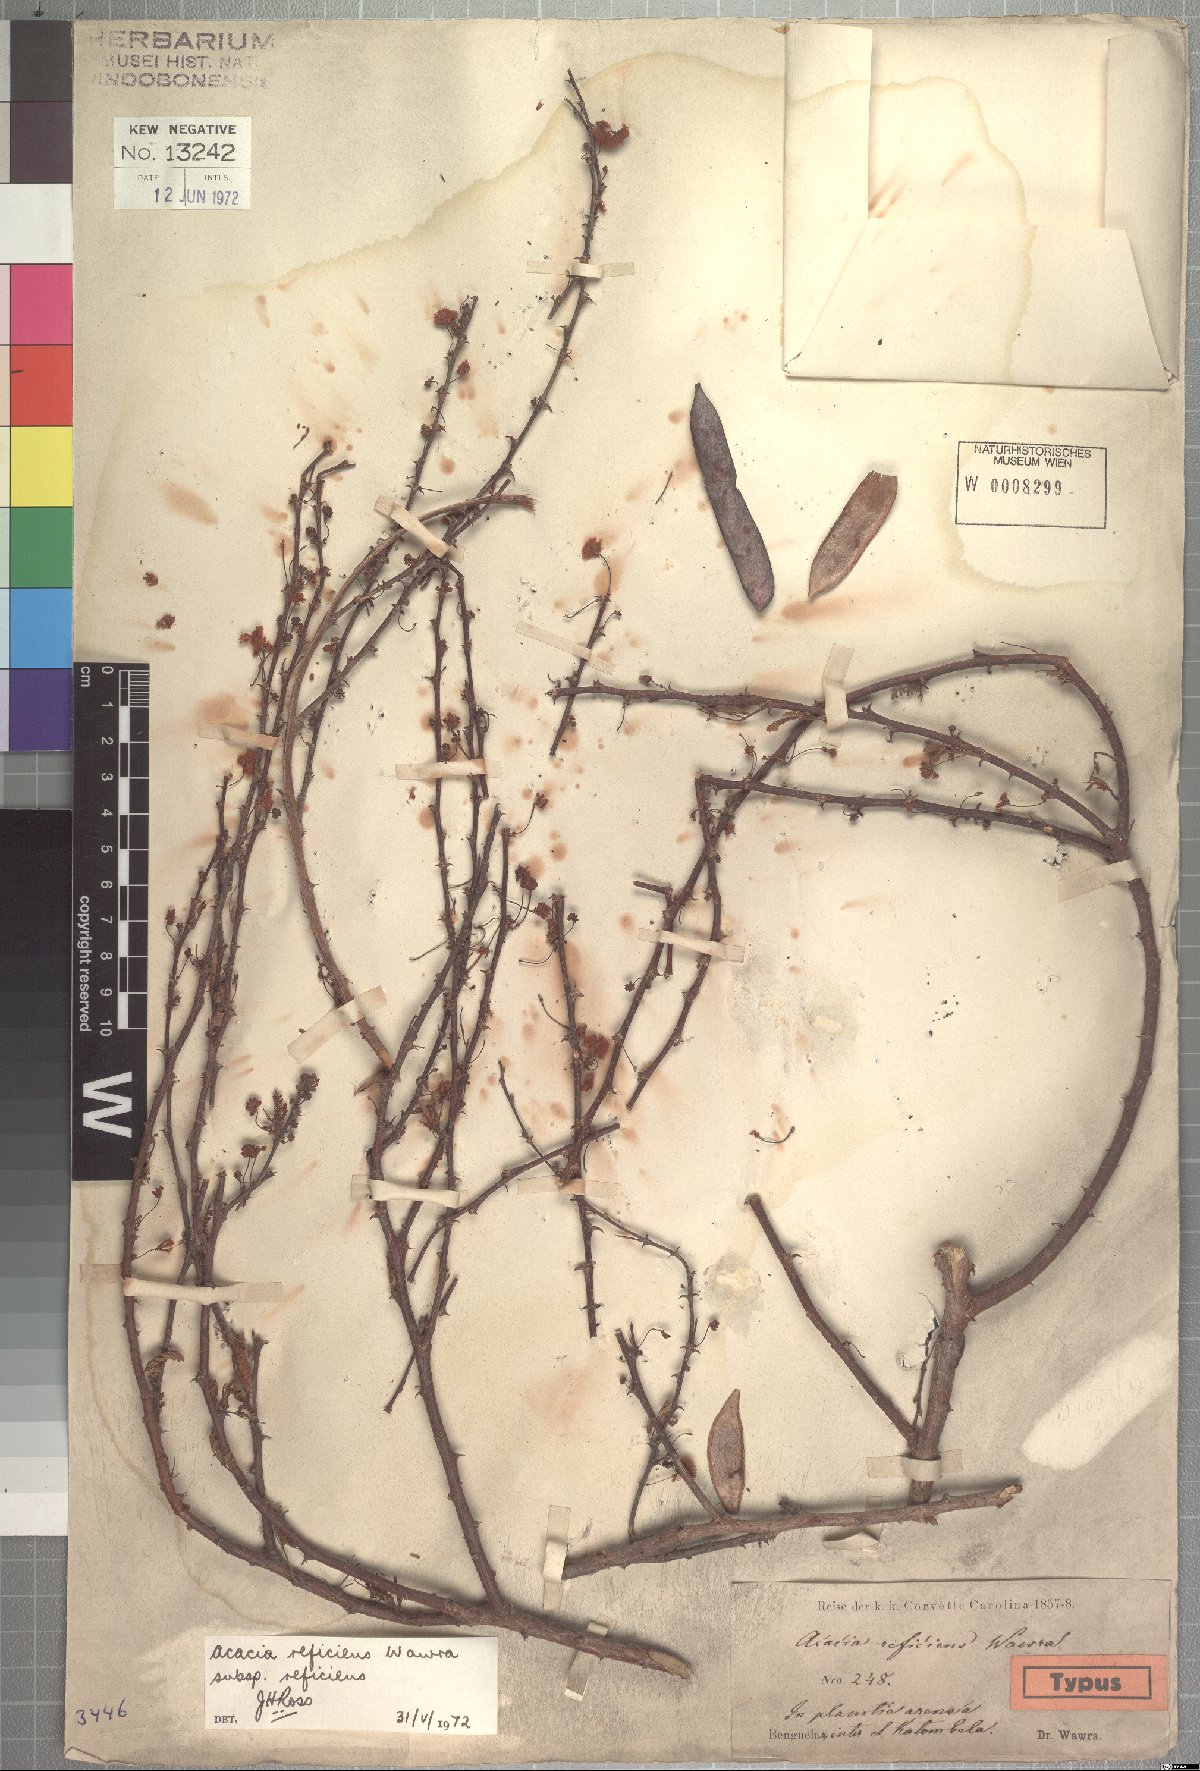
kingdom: Plantae
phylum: Tracheophyta
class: Magnoliopsida
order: Fabales
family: Fabaceae
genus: Vachellia
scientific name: Vachellia reficiens
